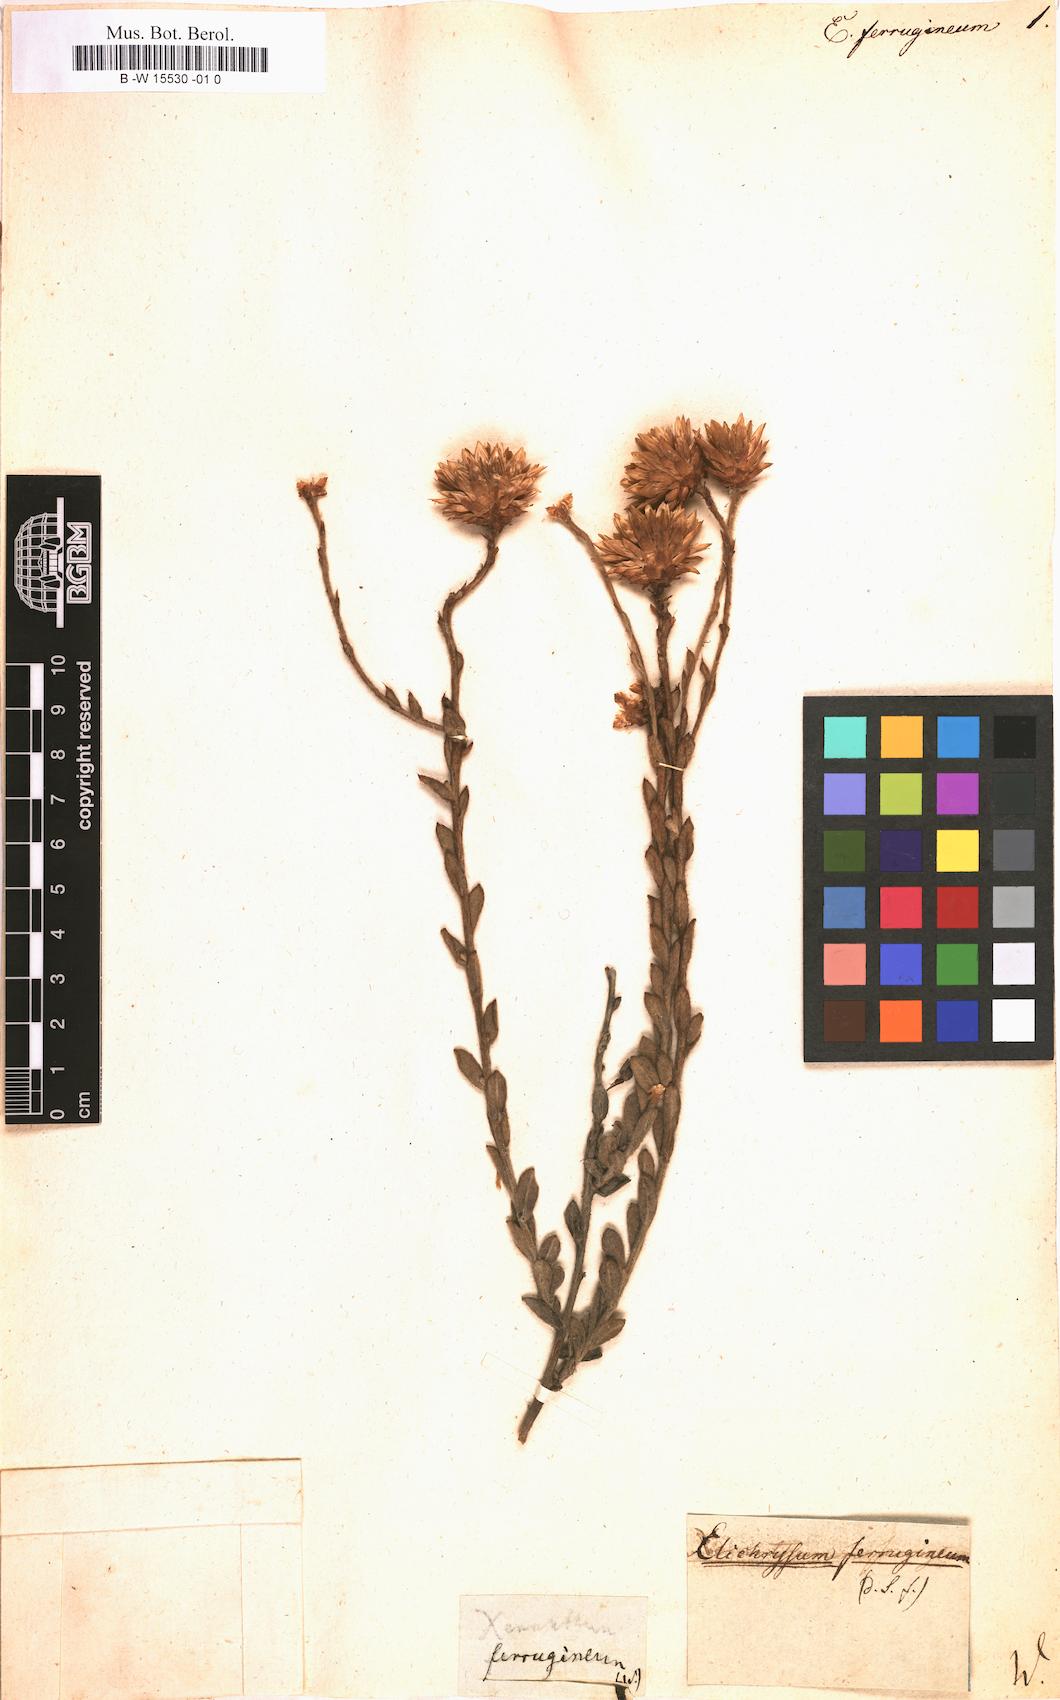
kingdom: Plantae
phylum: Tracheophyta
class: Magnoliopsida
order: Asterales
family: Asteraceae
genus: Helichrysum
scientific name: Helichrysum
